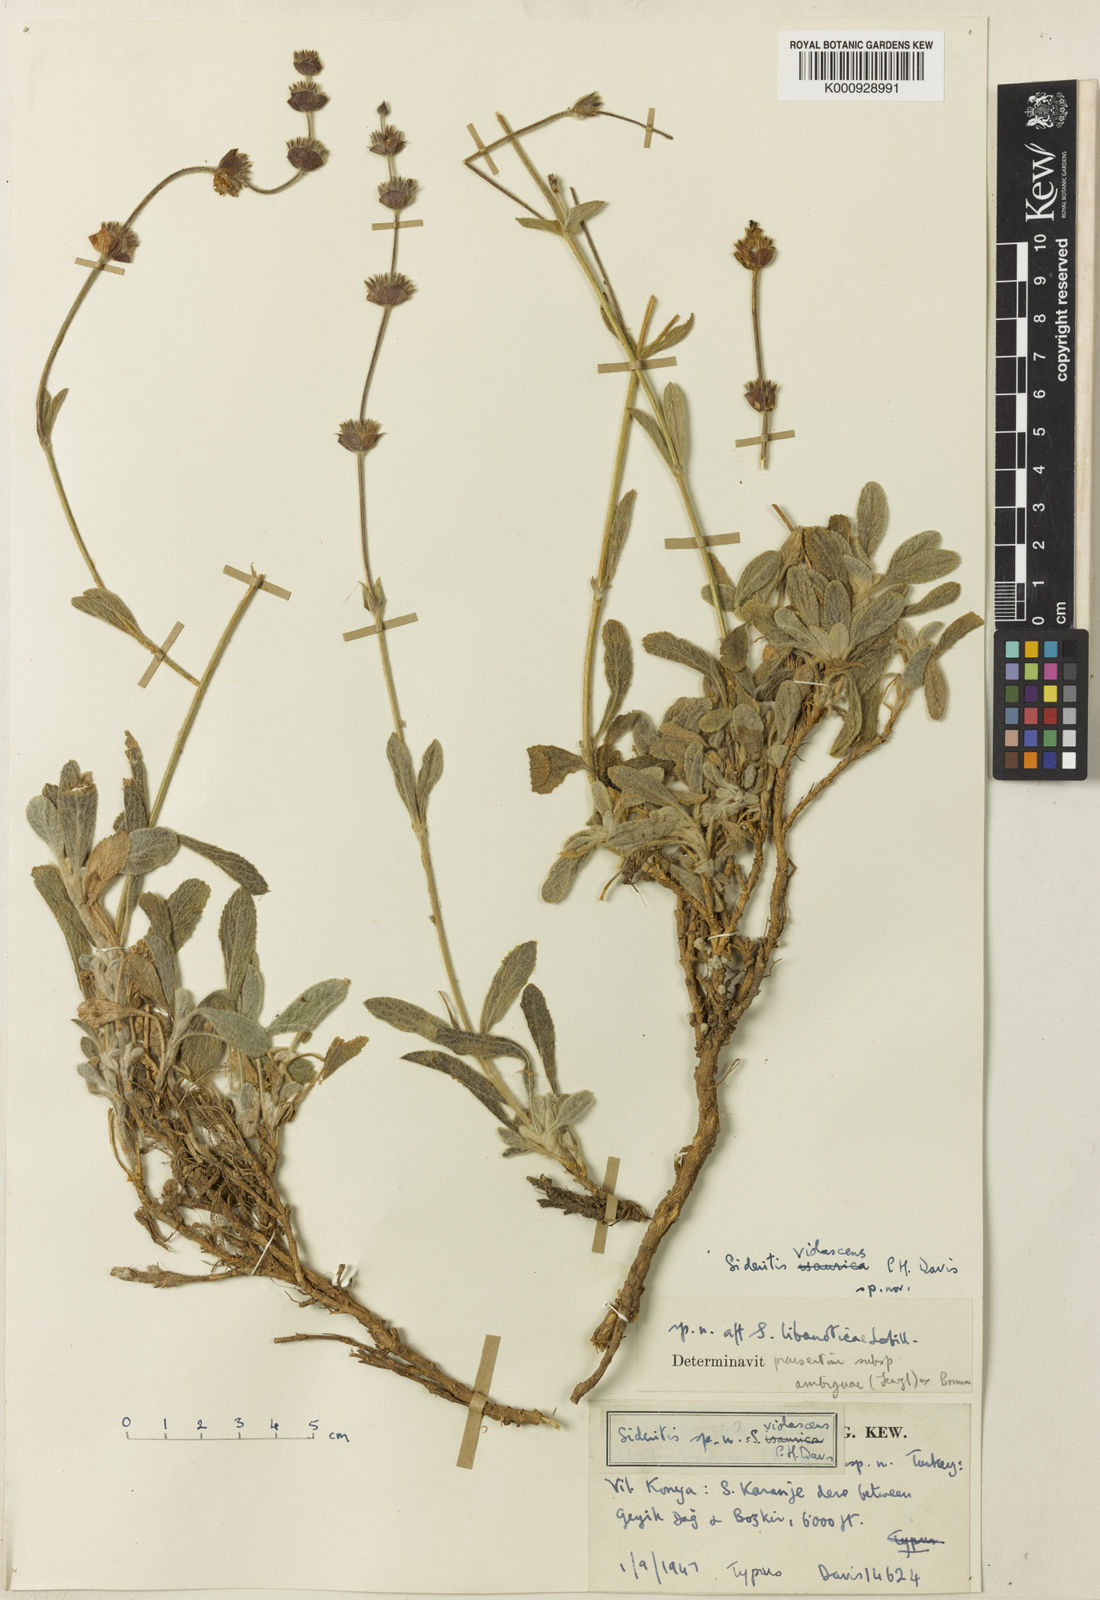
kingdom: Plantae
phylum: Tracheophyta
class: Magnoliopsida
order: Lamiales
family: Lamiaceae
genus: Sideritis
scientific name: Sideritis libanotica
